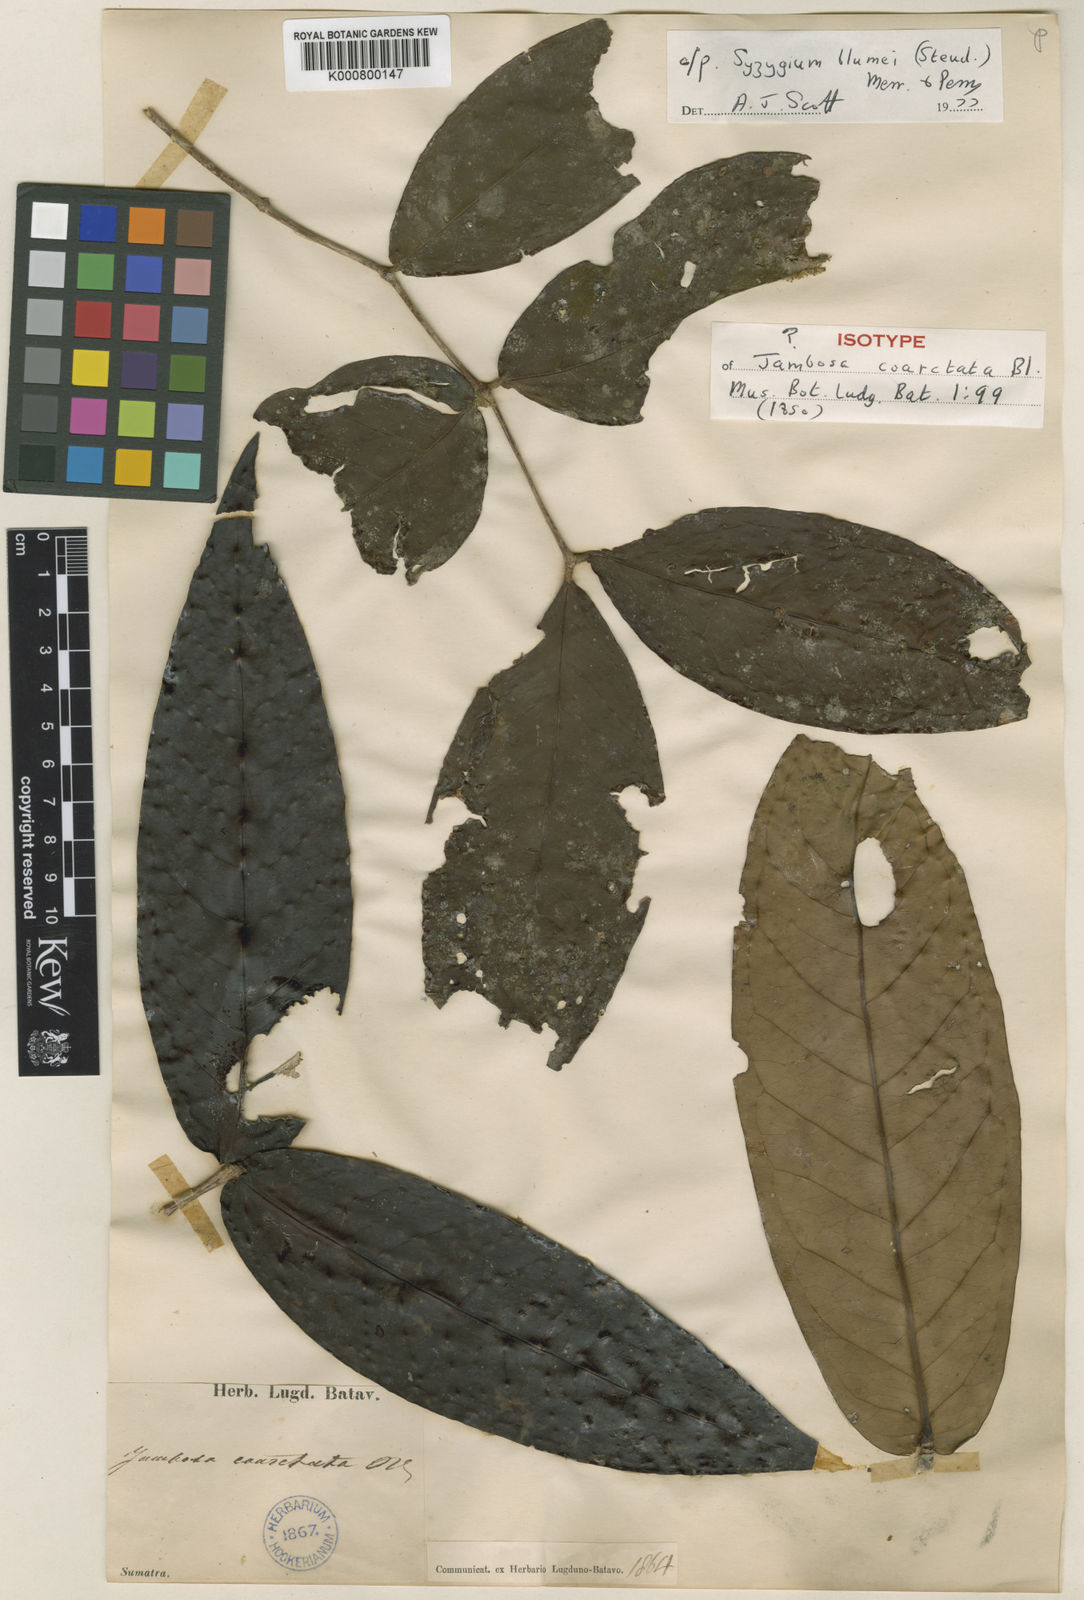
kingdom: Plantae
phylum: Tracheophyta
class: Magnoliopsida
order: Myrtales
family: Myrtaceae
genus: Syzygium
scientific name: Syzygium zeylanicum
